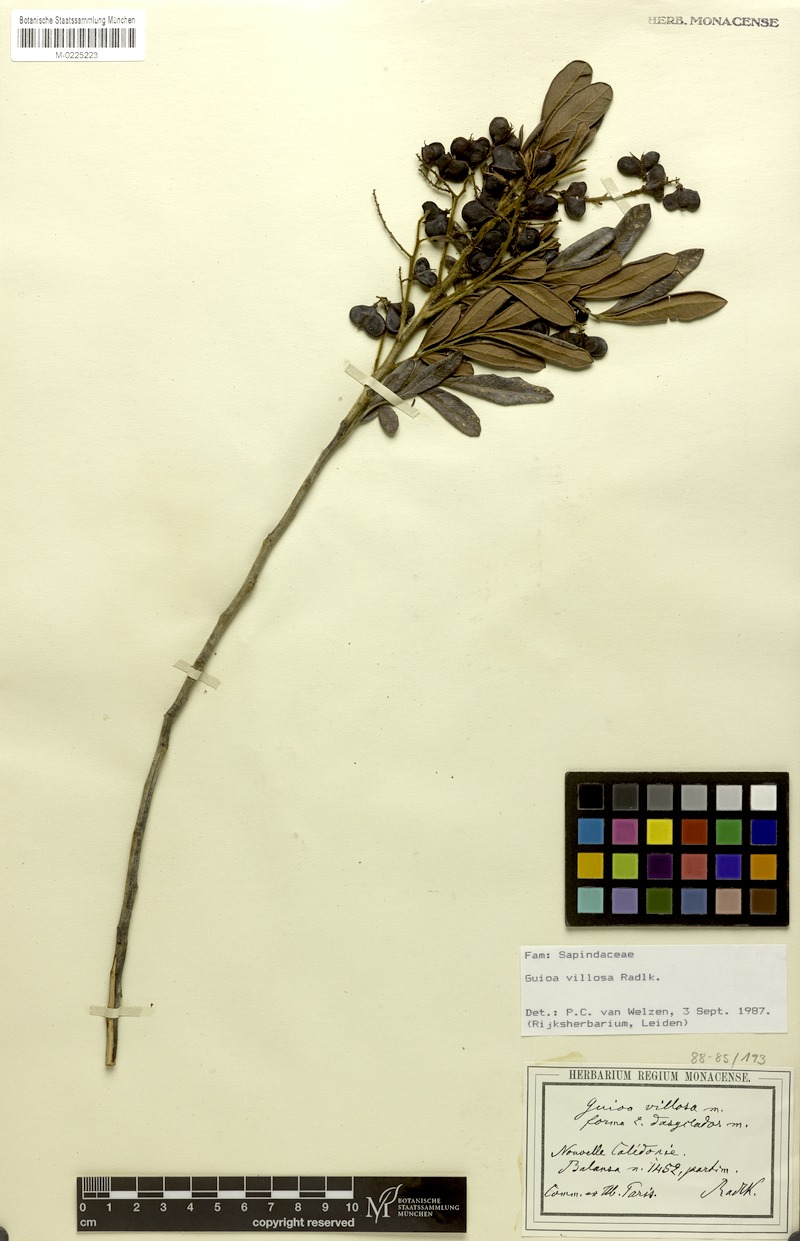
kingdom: Plantae
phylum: Tracheophyta
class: Magnoliopsida
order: Sapindales
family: Sapindaceae
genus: Guioa
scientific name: Guioa villosa
